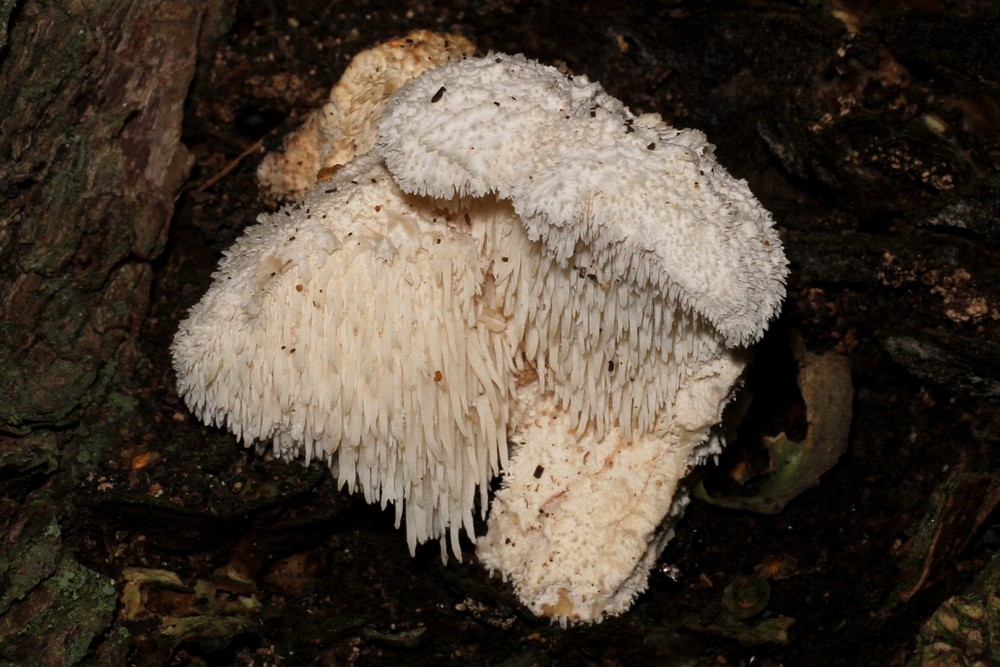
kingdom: Fungi
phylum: Basidiomycota
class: Agaricomycetes
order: Russulales
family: Hericiaceae
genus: Hericium
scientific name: Hericium cirrhatum
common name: børstepigsvamp
